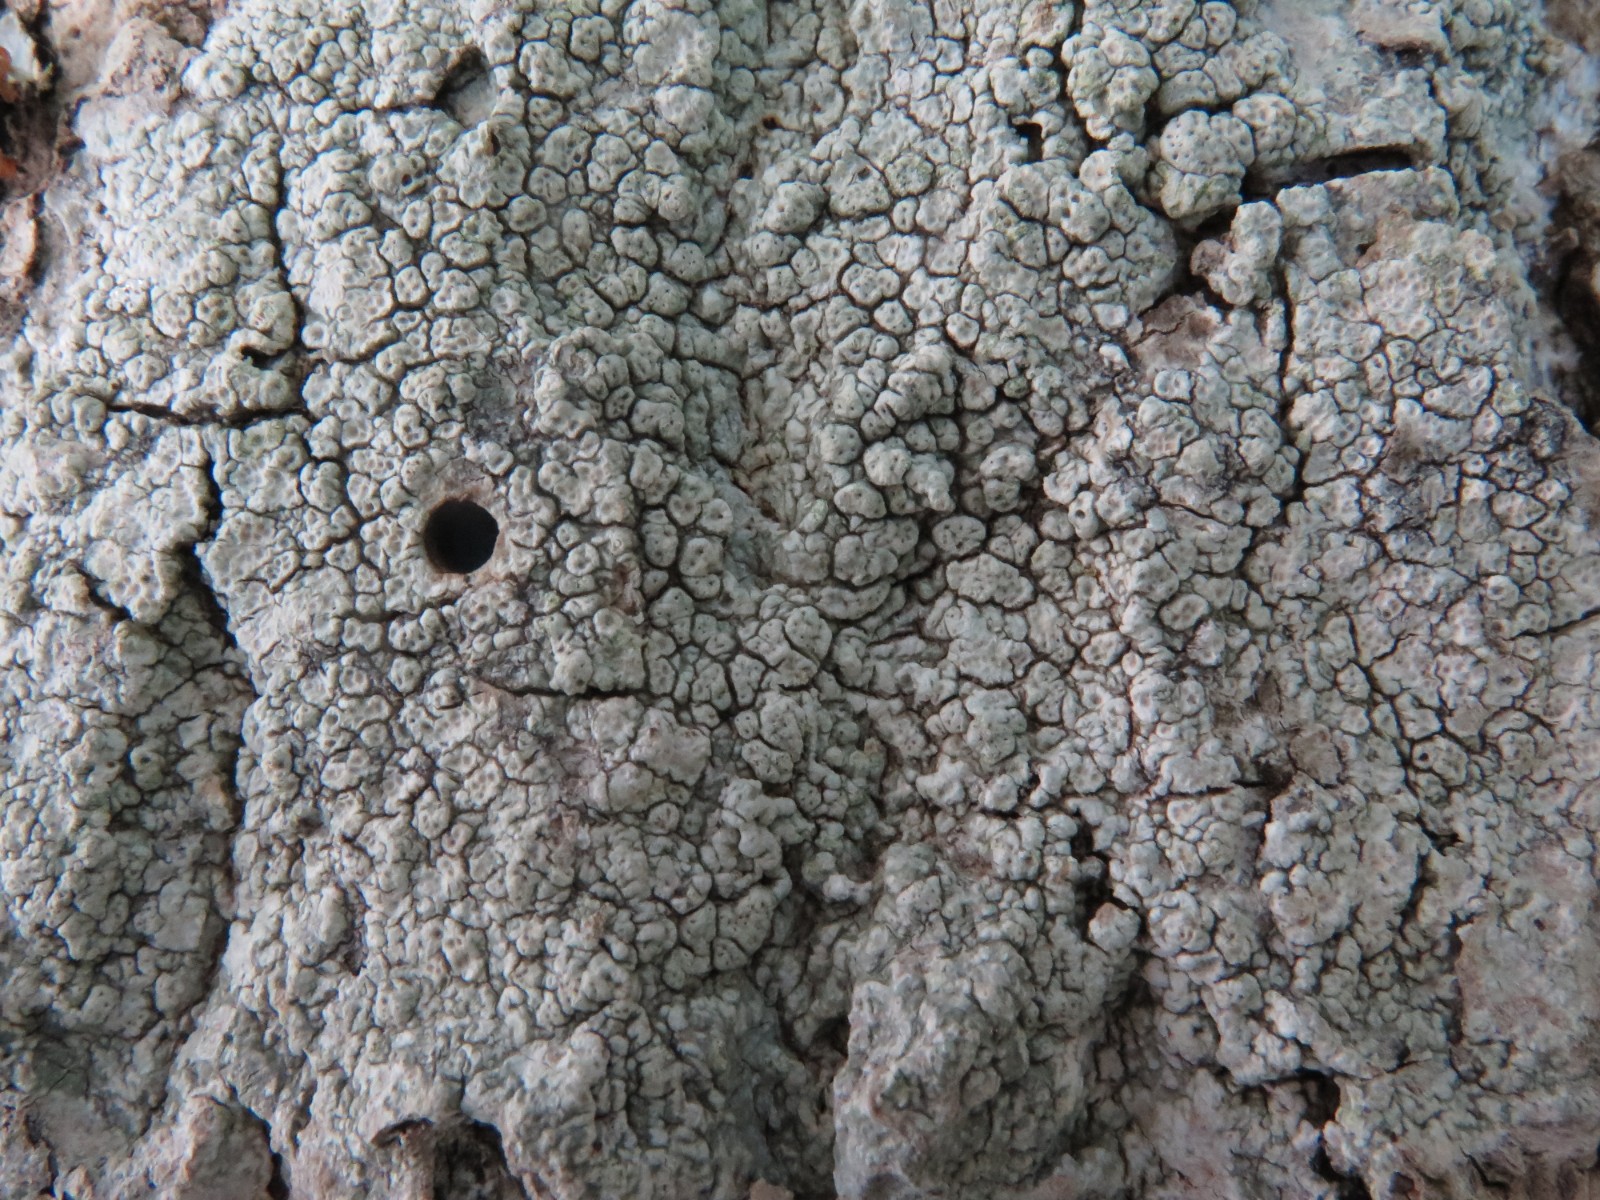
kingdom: Fungi
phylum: Ascomycota
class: Lecanoromycetes
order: Pertusariales
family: Pertusariaceae
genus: Pertusaria
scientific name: Pertusaria pertusa
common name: almindelig prikvortelav
